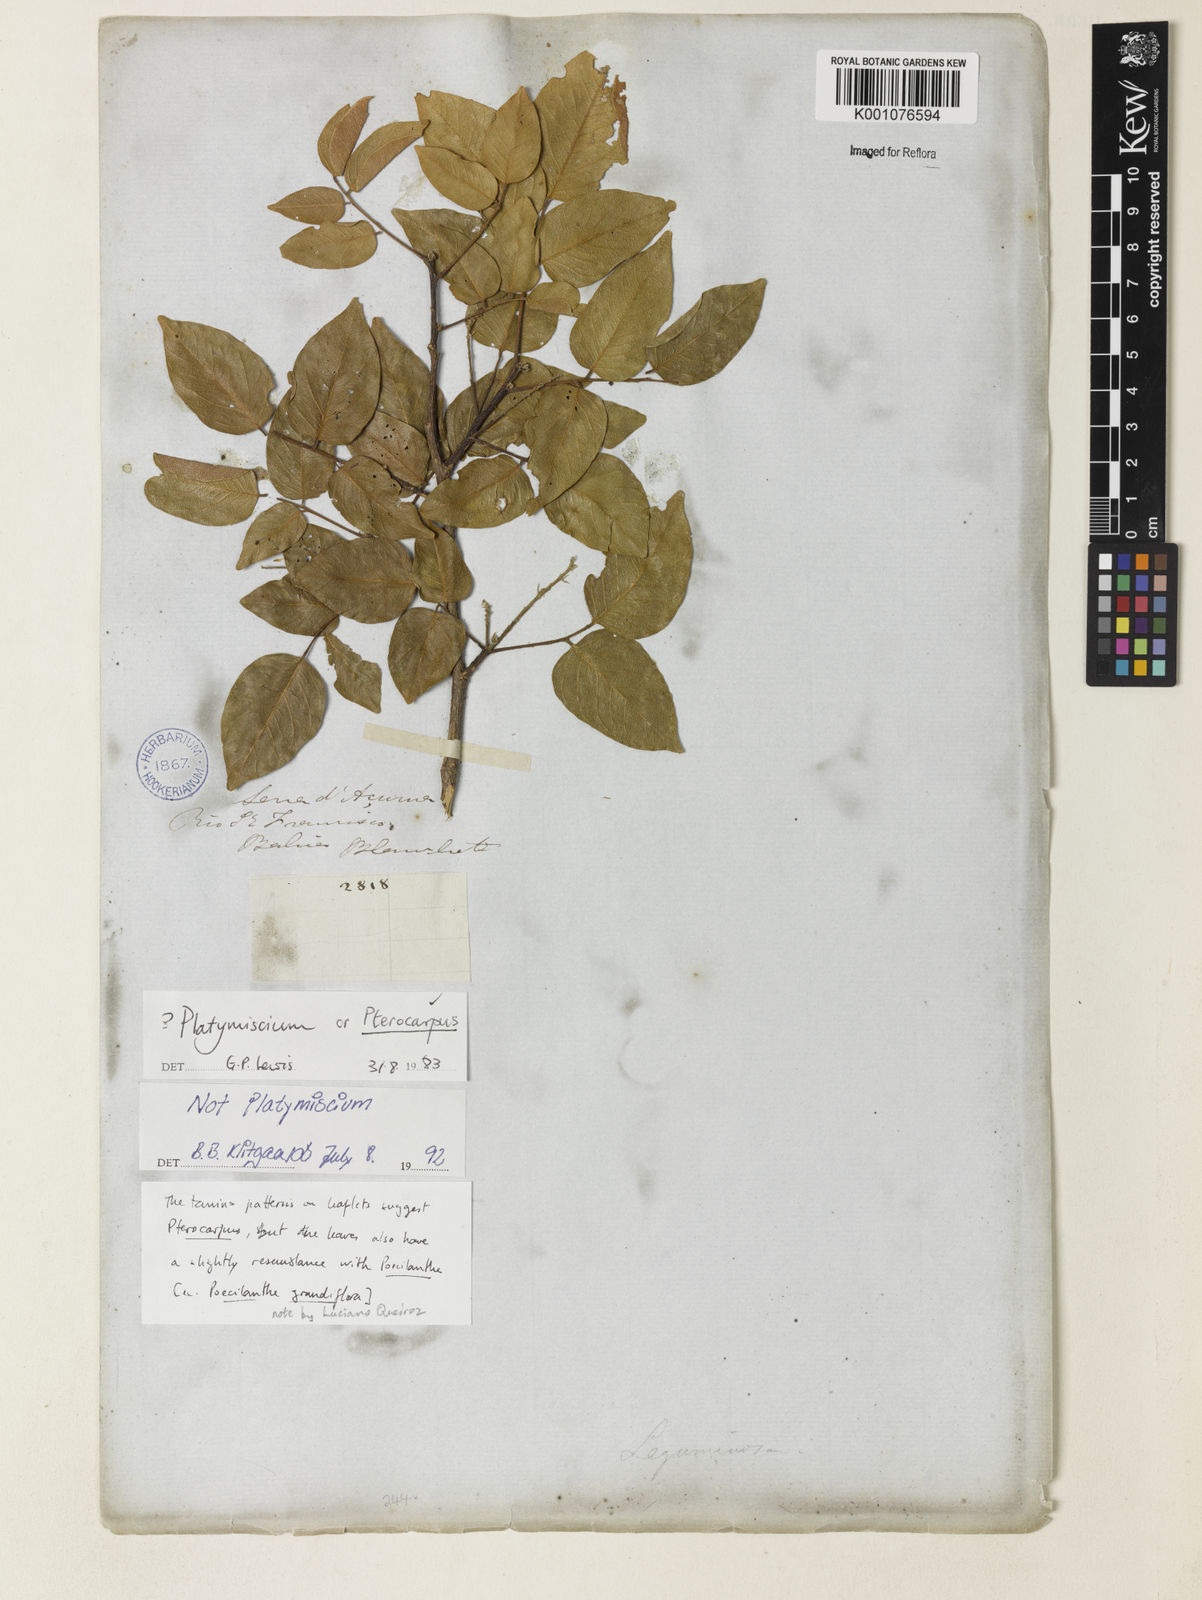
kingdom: Plantae
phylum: Tracheophyta
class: Magnoliopsida
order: Fabales
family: Fabaceae
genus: Pterocarpus
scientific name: Pterocarpus
